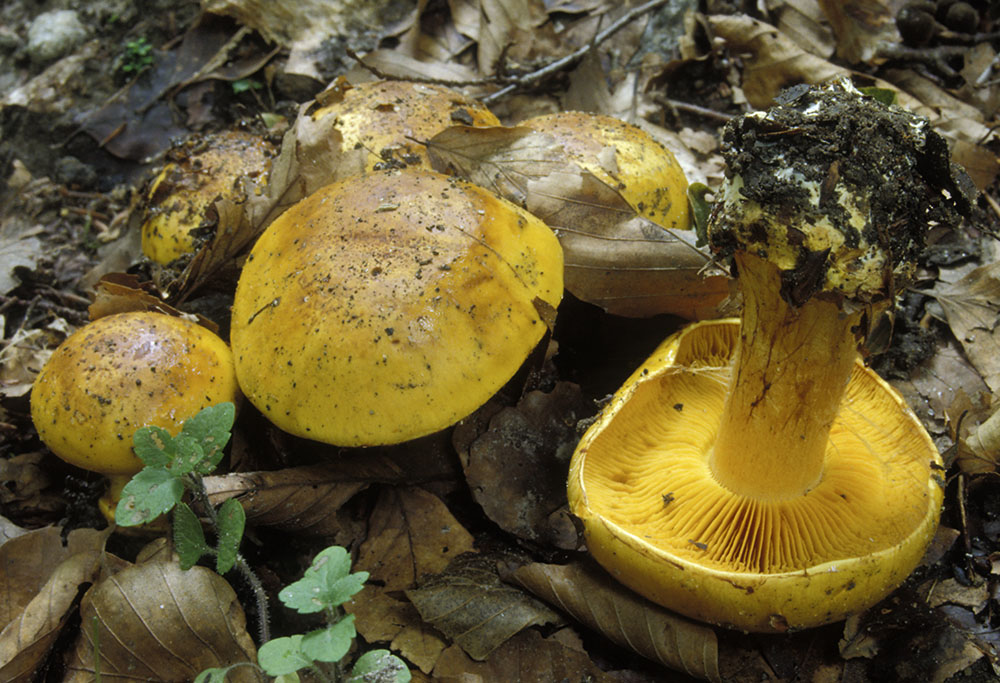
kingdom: Fungi
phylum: Basidiomycota
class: Agaricomycetes
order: Agaricales
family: Cortinariaceae
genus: Calonarius
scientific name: Calonarius olearioides
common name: safran-slørhat
